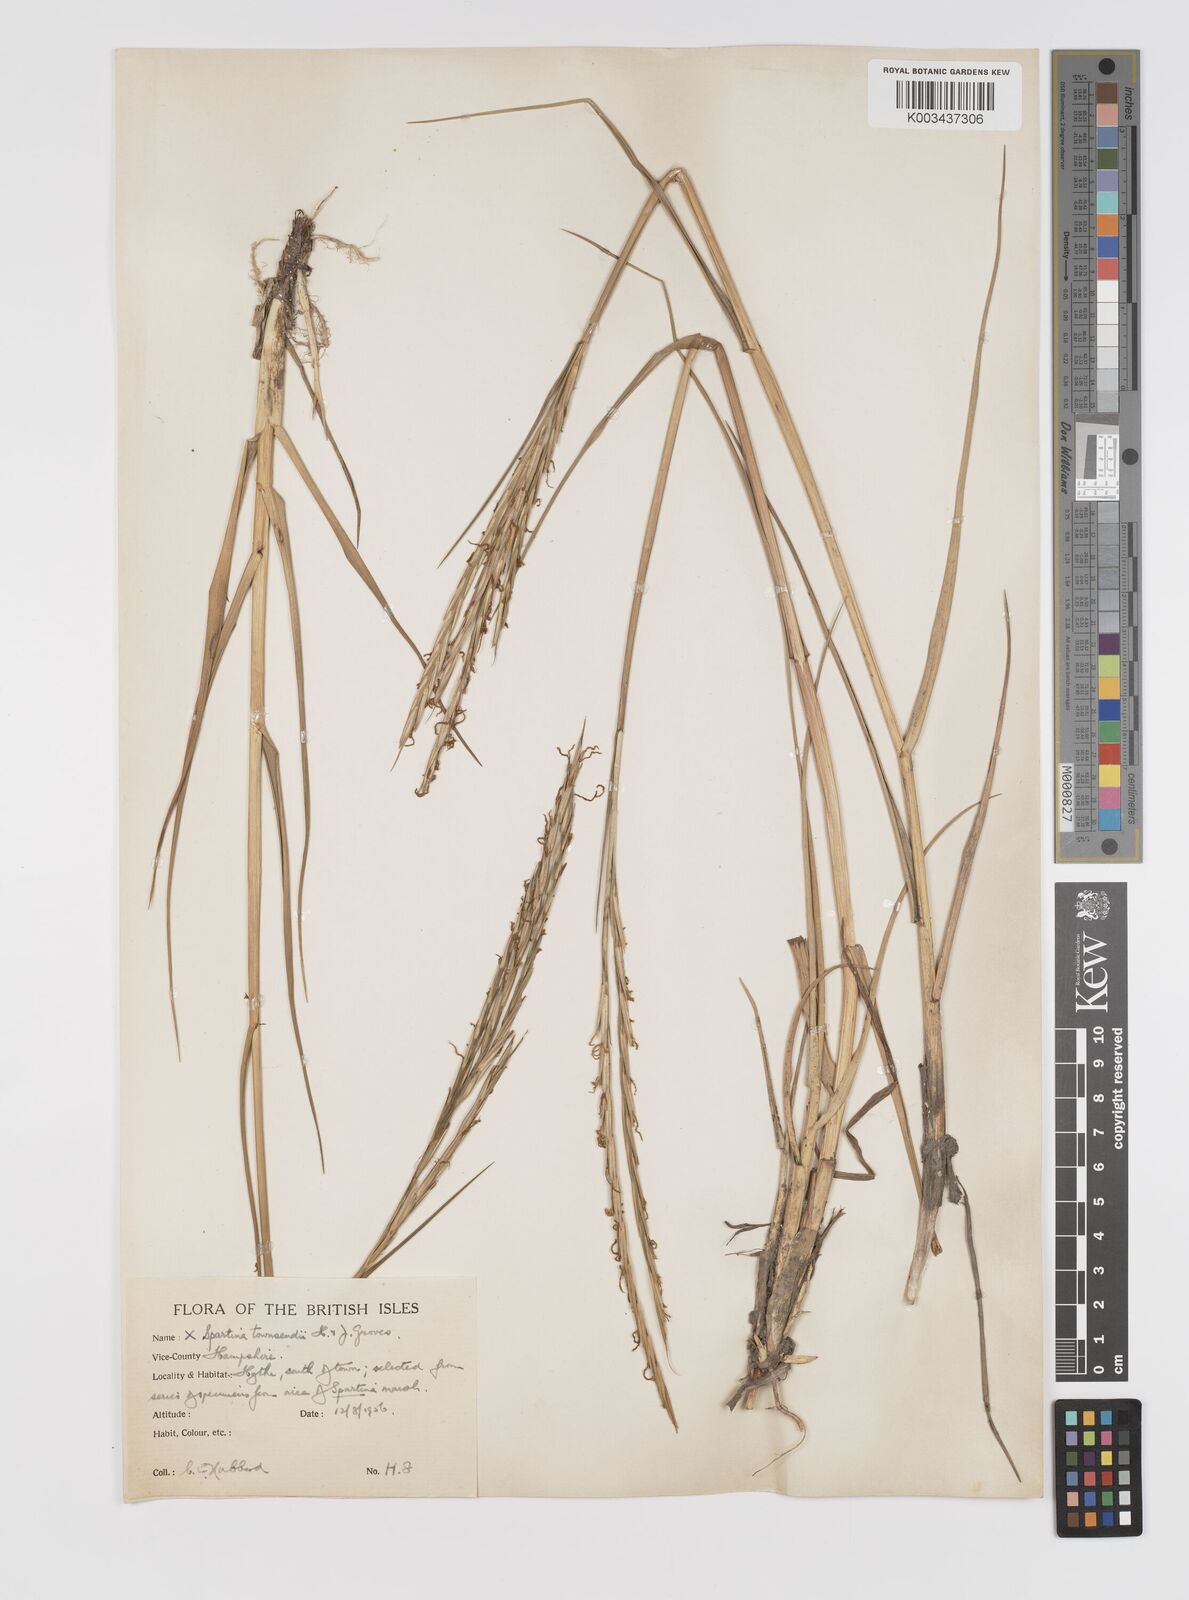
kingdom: Plantae
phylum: Tracheophyta
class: Liliopsida
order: Poales
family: Poaceae
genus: Sporobolus
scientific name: Sporobolus townsendii
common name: Townsend's cordgrass
